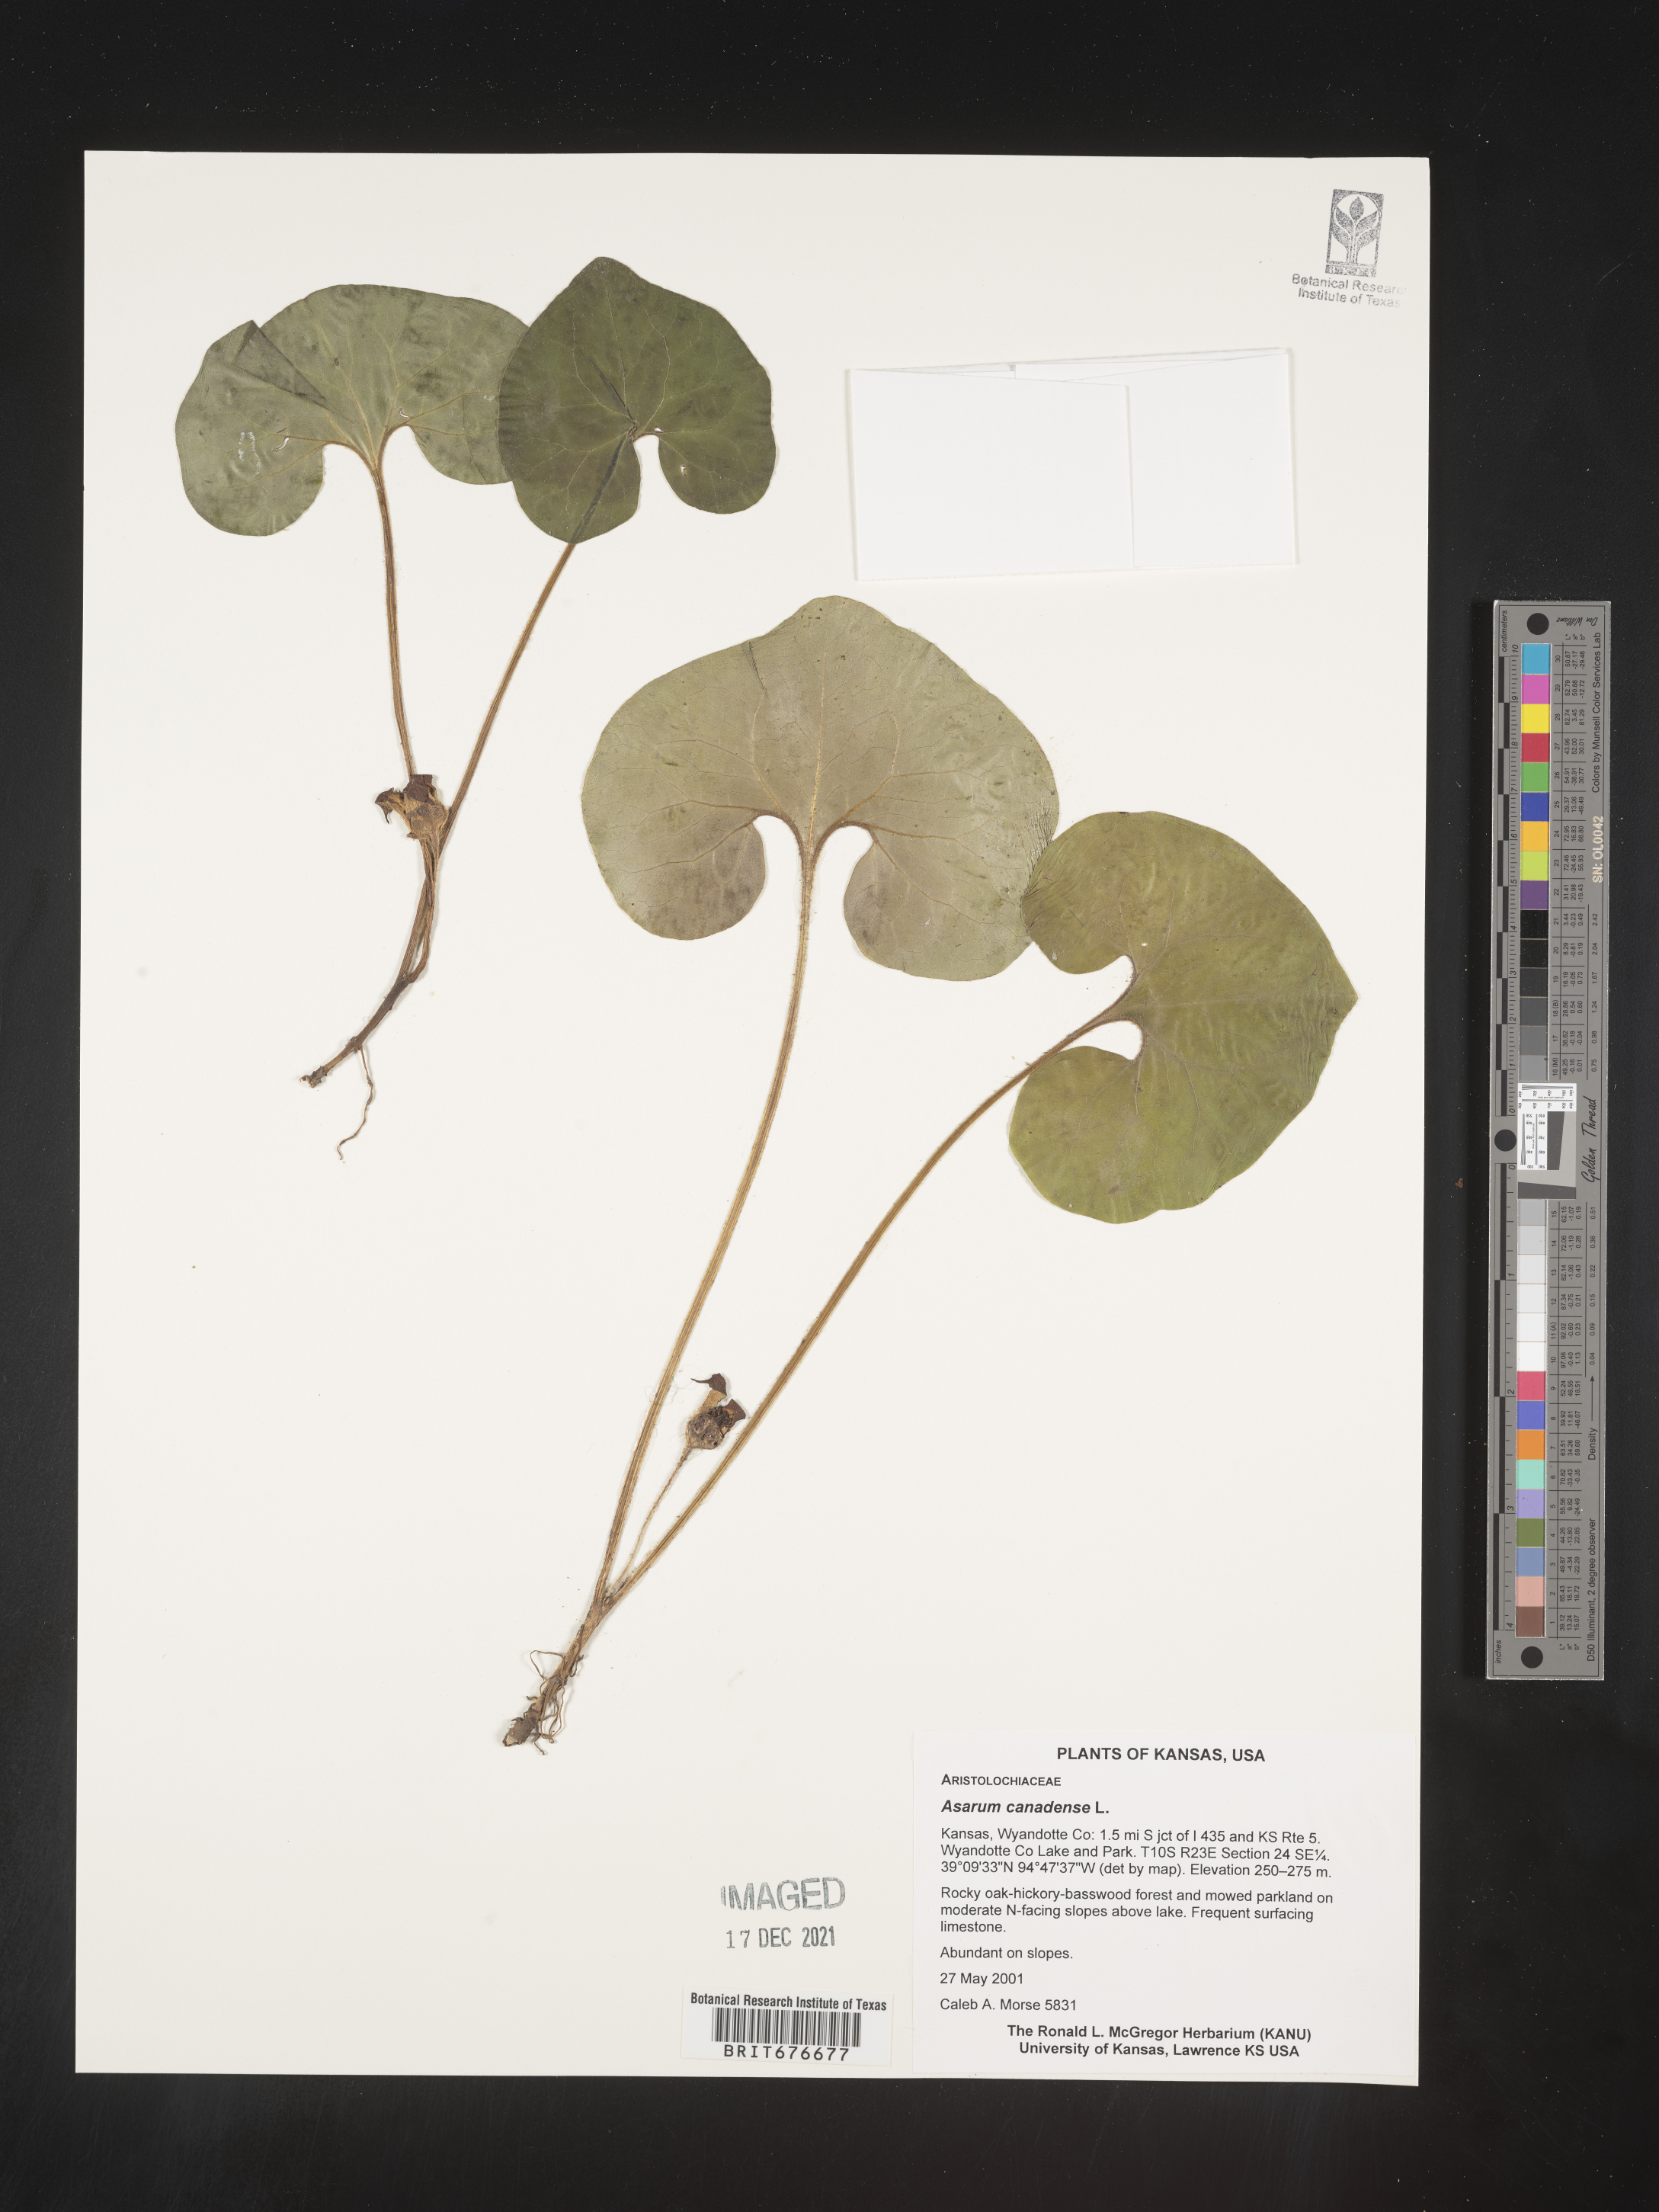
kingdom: Plantae
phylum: Tracheophyta
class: Magnoliopsida
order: Piperales
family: Aristolochiaceae
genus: Asarum
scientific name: Asarum canadense
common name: Wild ginger
